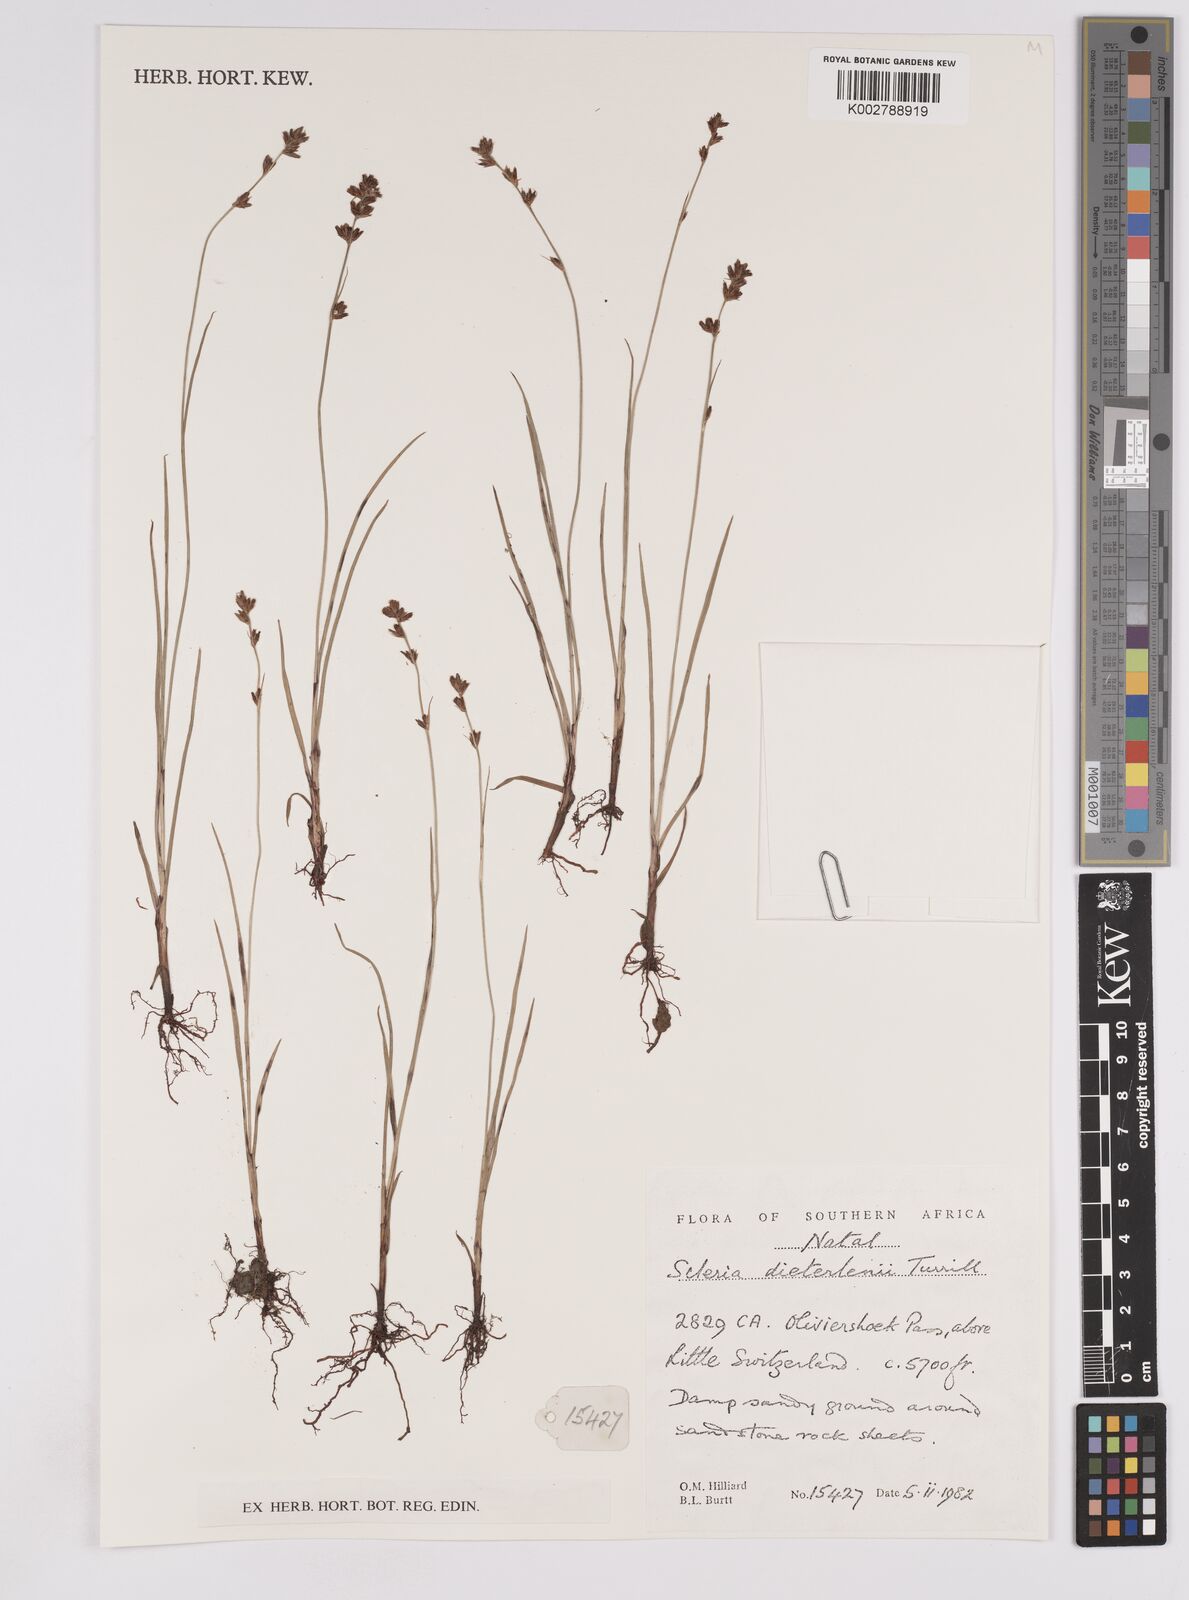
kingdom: Plantae
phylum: Tracheophyta
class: Liliopsida
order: Poales
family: Cyperaceae
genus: Scleria
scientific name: Scleria flexuosa
